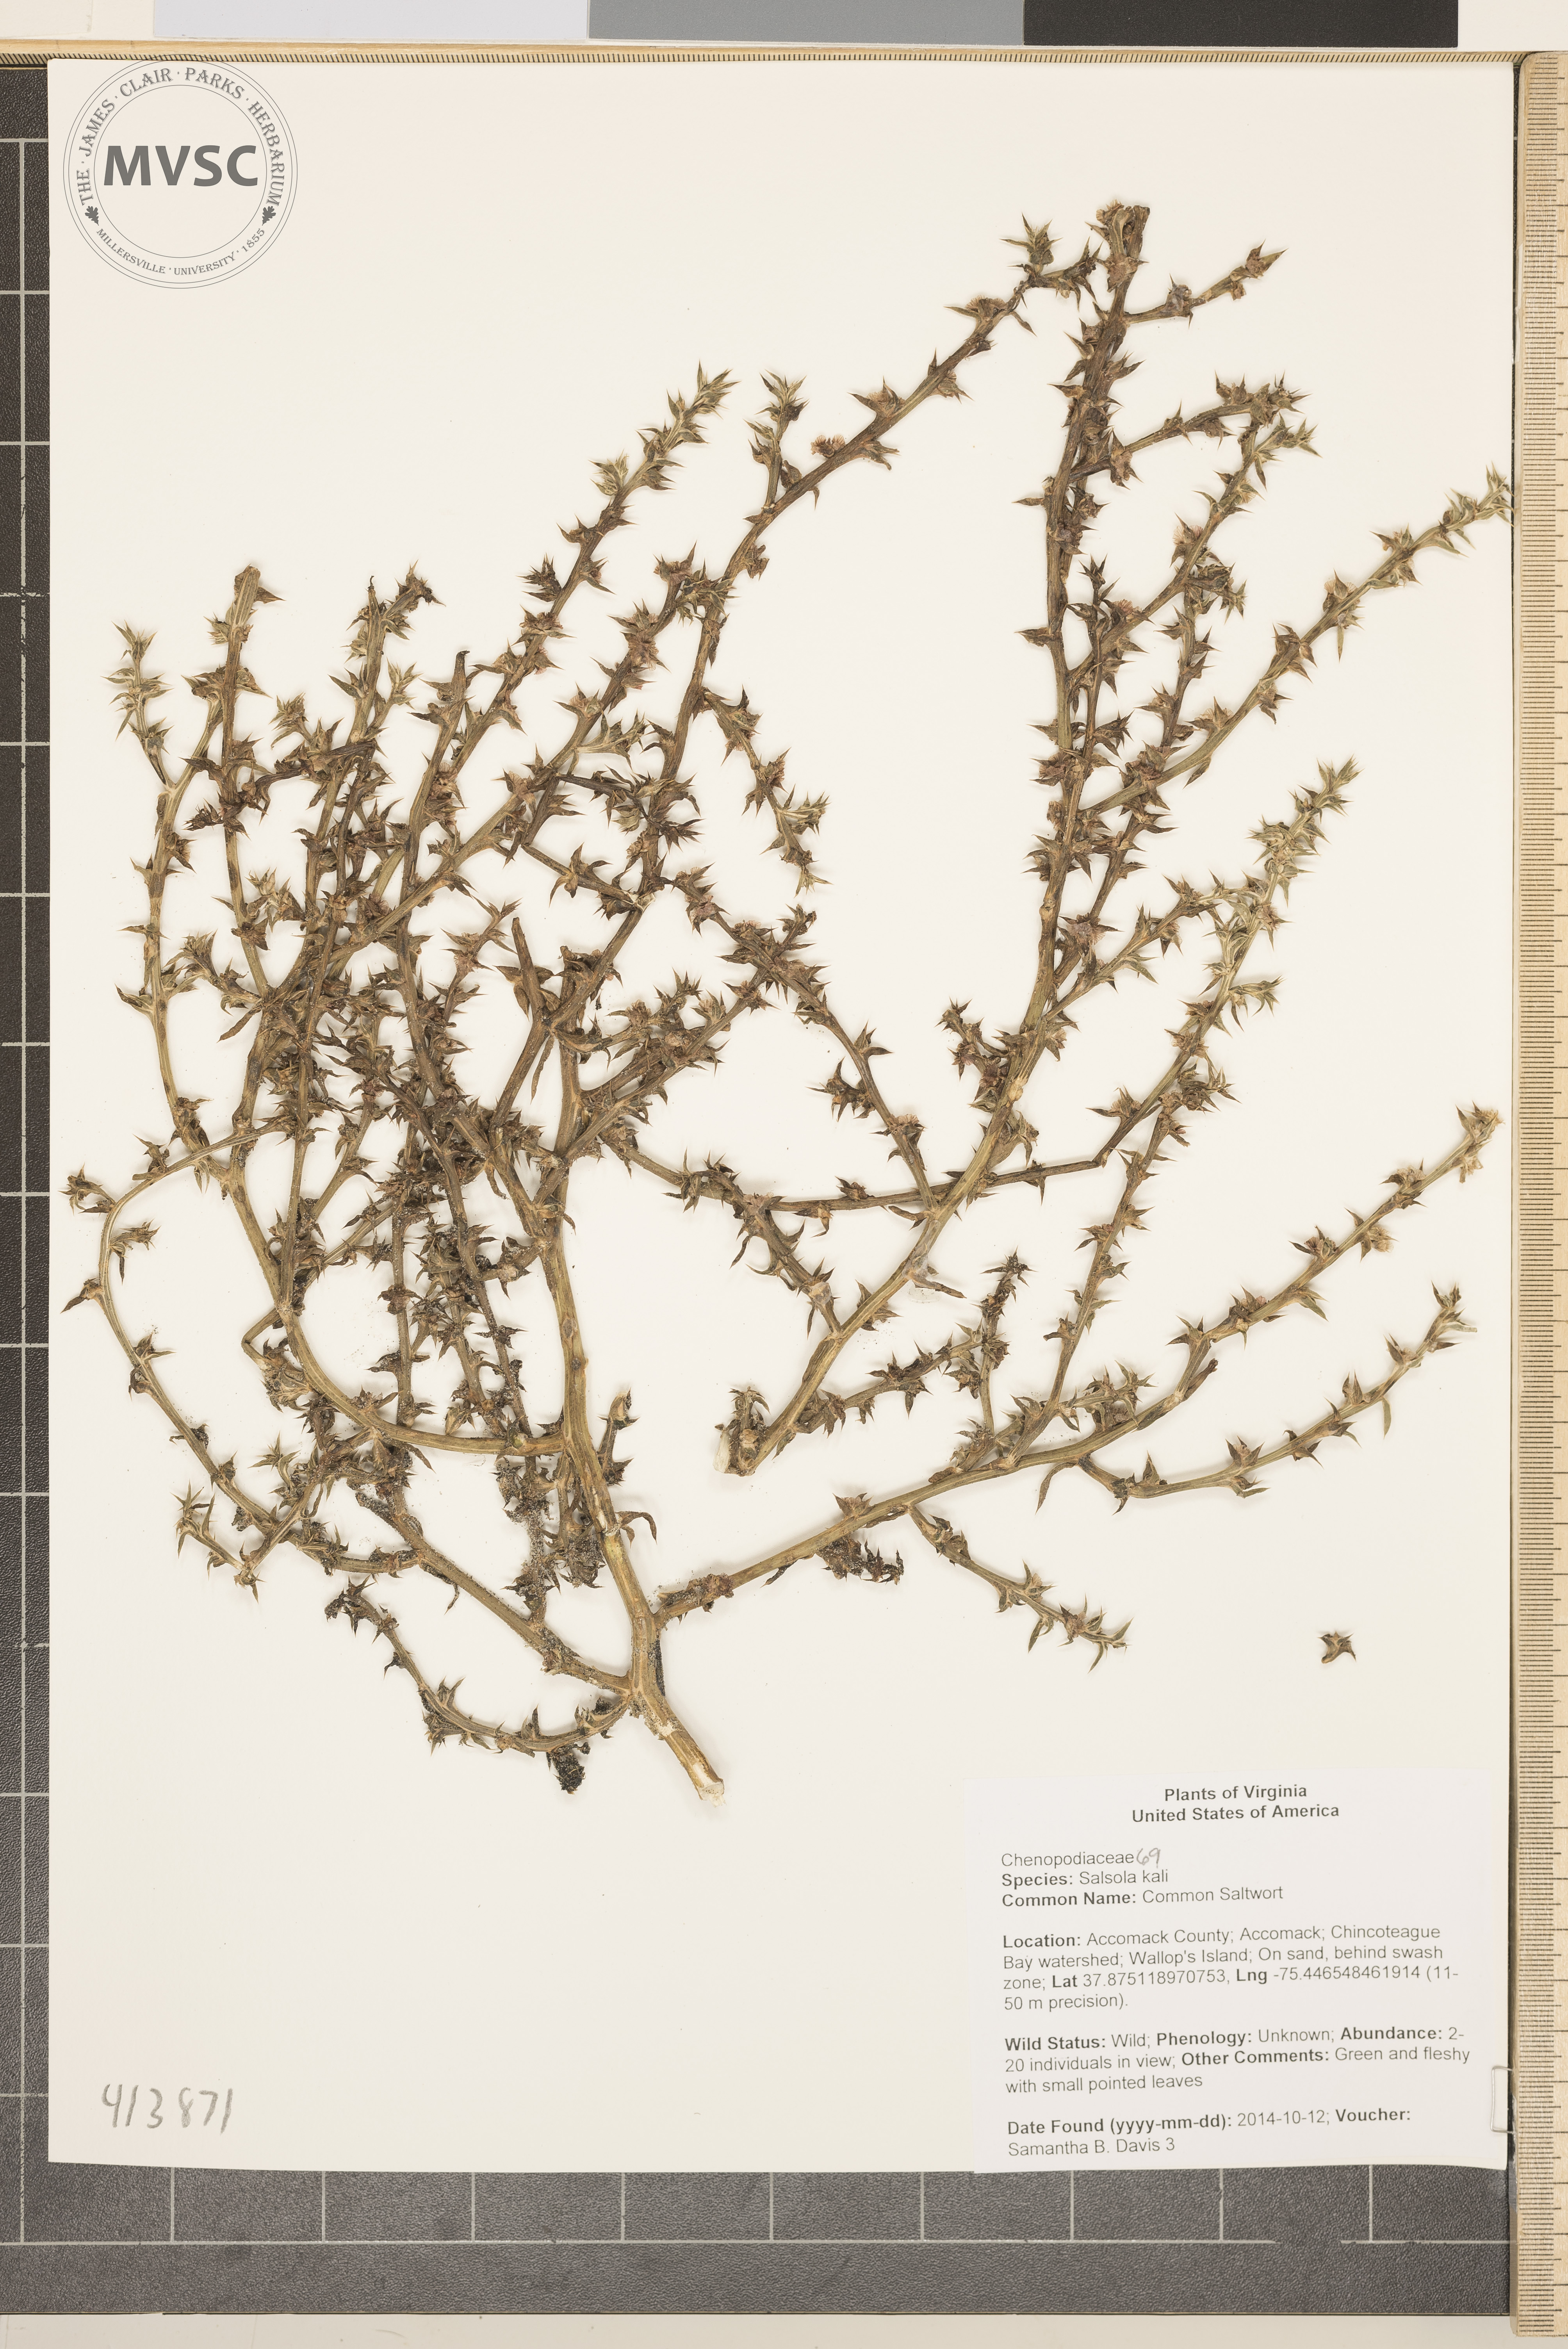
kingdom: Plantae
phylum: Tracheophyta
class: Magnoliopsida
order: Caryophyllales
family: Amaranthaceae
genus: Salsola
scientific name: Salsola kali
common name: Common Saltwort
